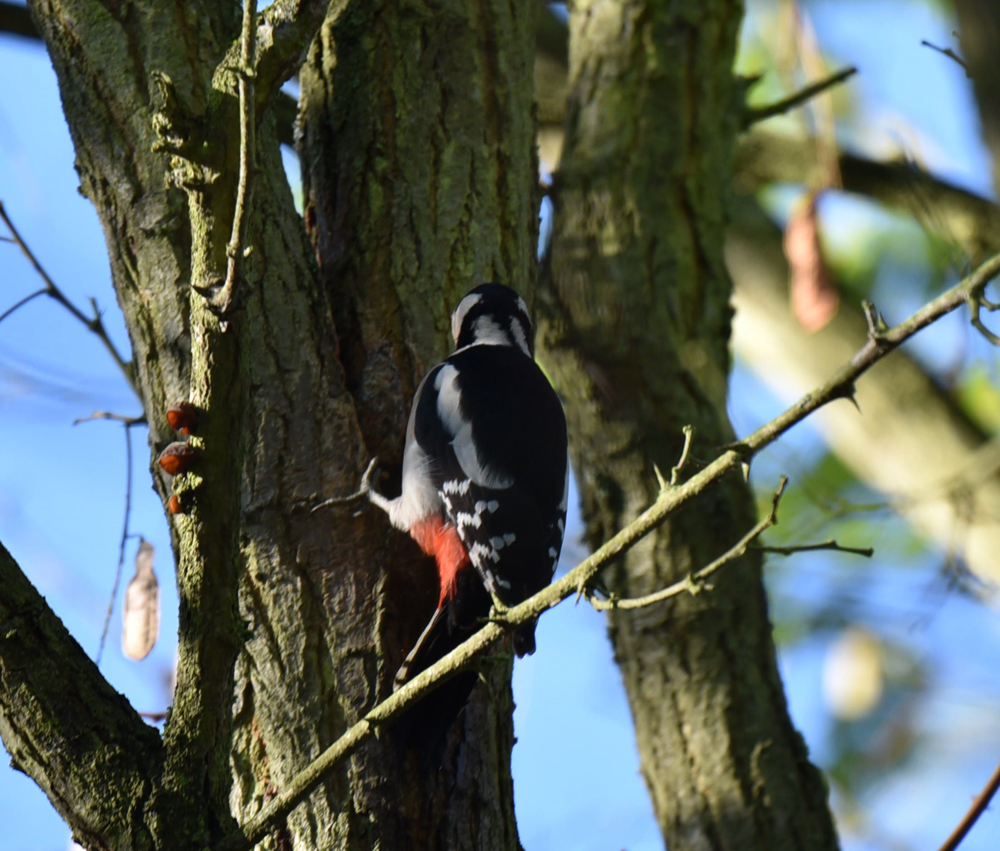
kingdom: Animalia
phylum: Chordata
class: Aves
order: Piciformes
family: Picidae
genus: Dendrocopos
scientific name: Dendrocopos major
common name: Great spotted woodpecker
